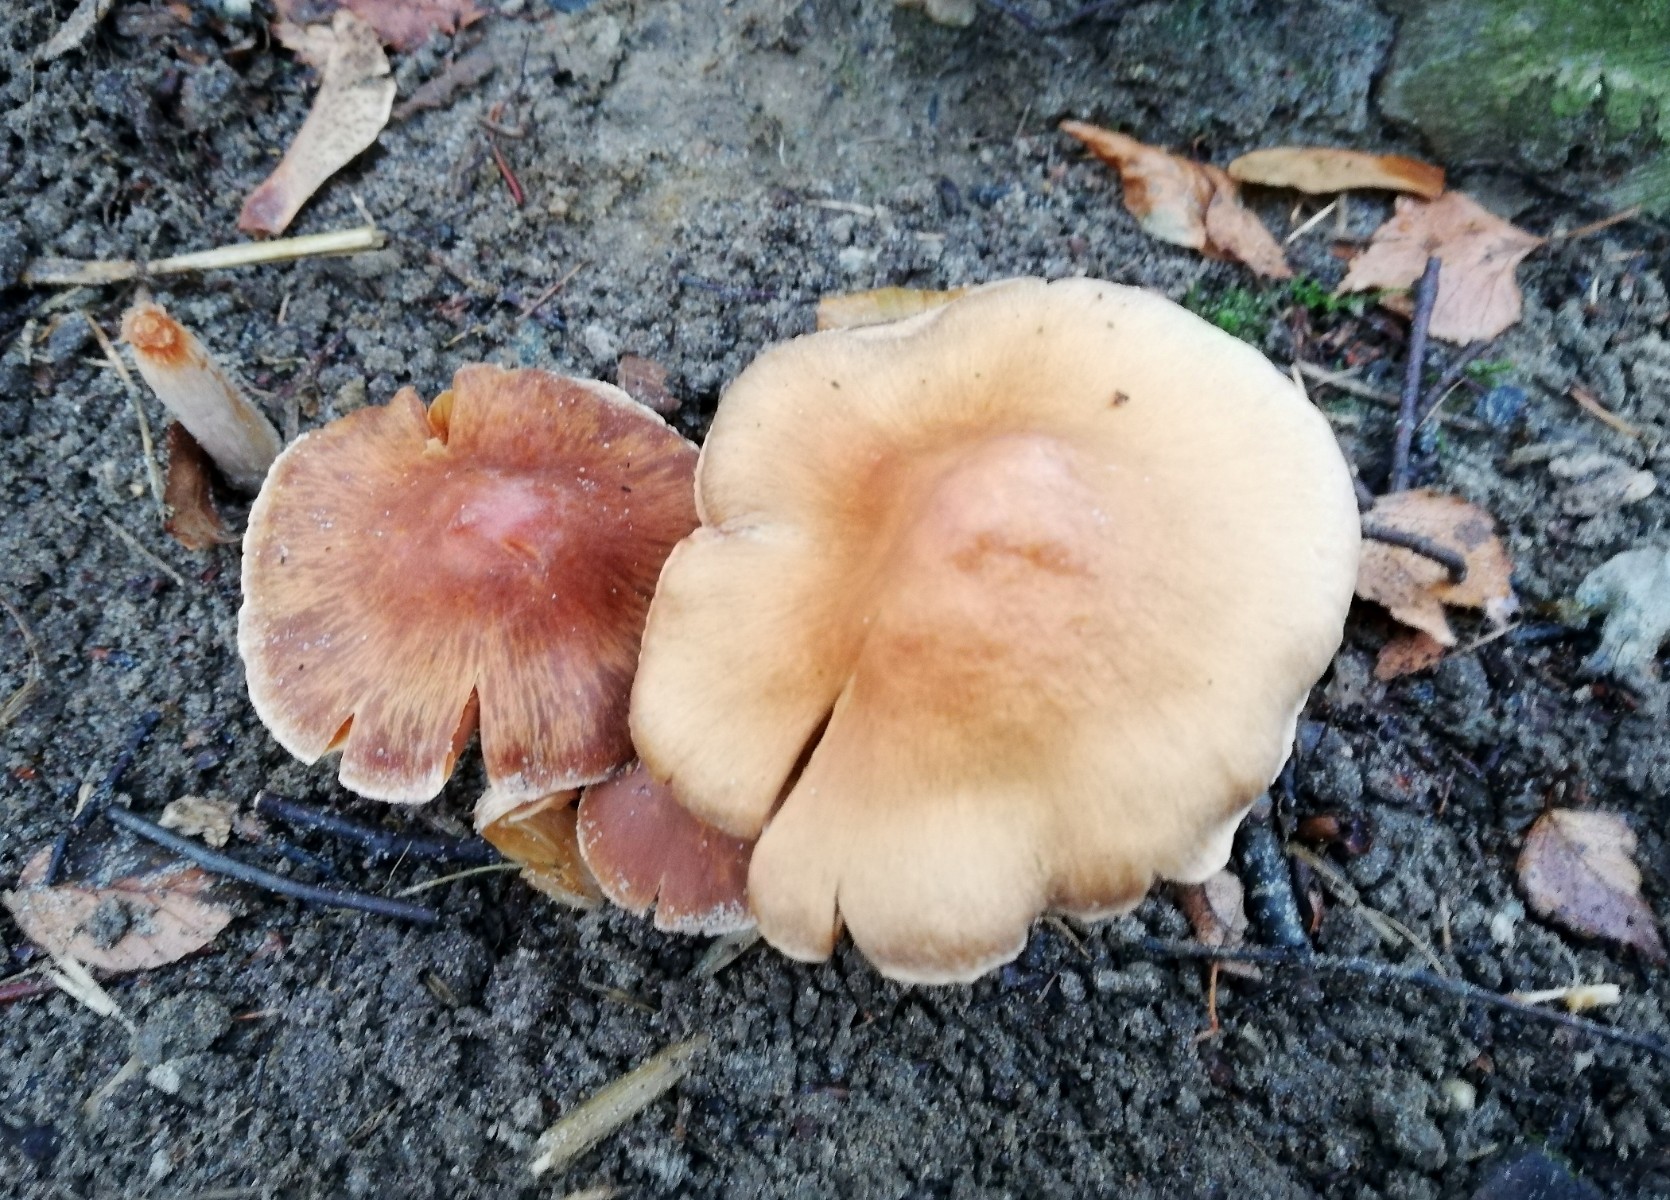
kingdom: Fungi
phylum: Basidiomycota
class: Agaricomycetes
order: Agaricales
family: Cortinariaceae
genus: Cortinarius
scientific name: Cortinarius
